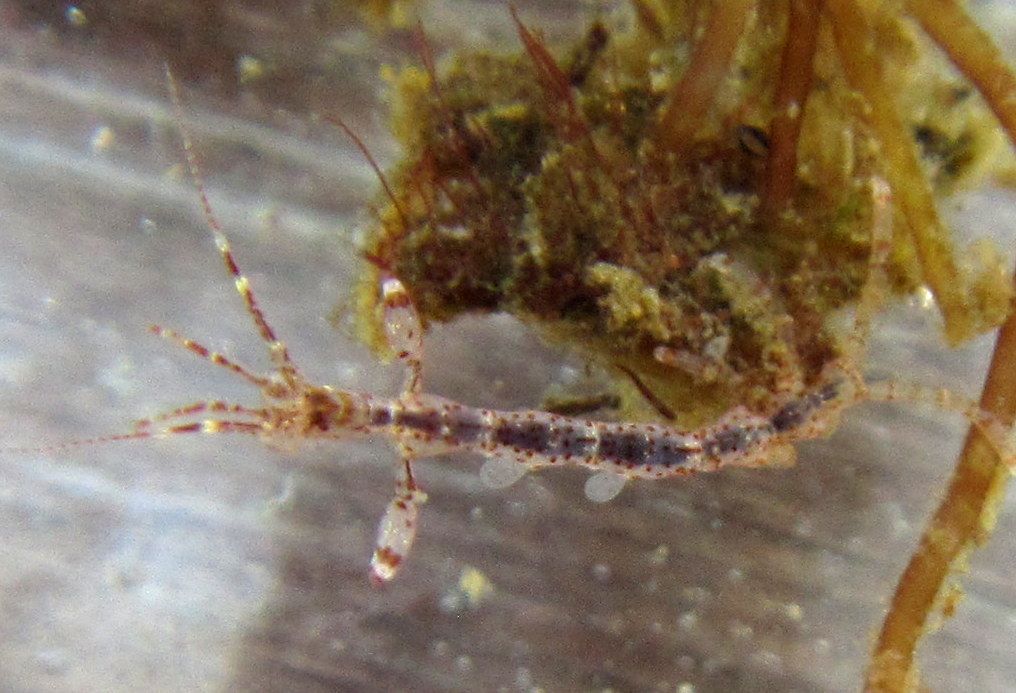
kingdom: Animalia
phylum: Arthropoda
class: Malacostraca
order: Amphipoda
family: Caprellidae
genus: Caprella
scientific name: Caprella linearis
